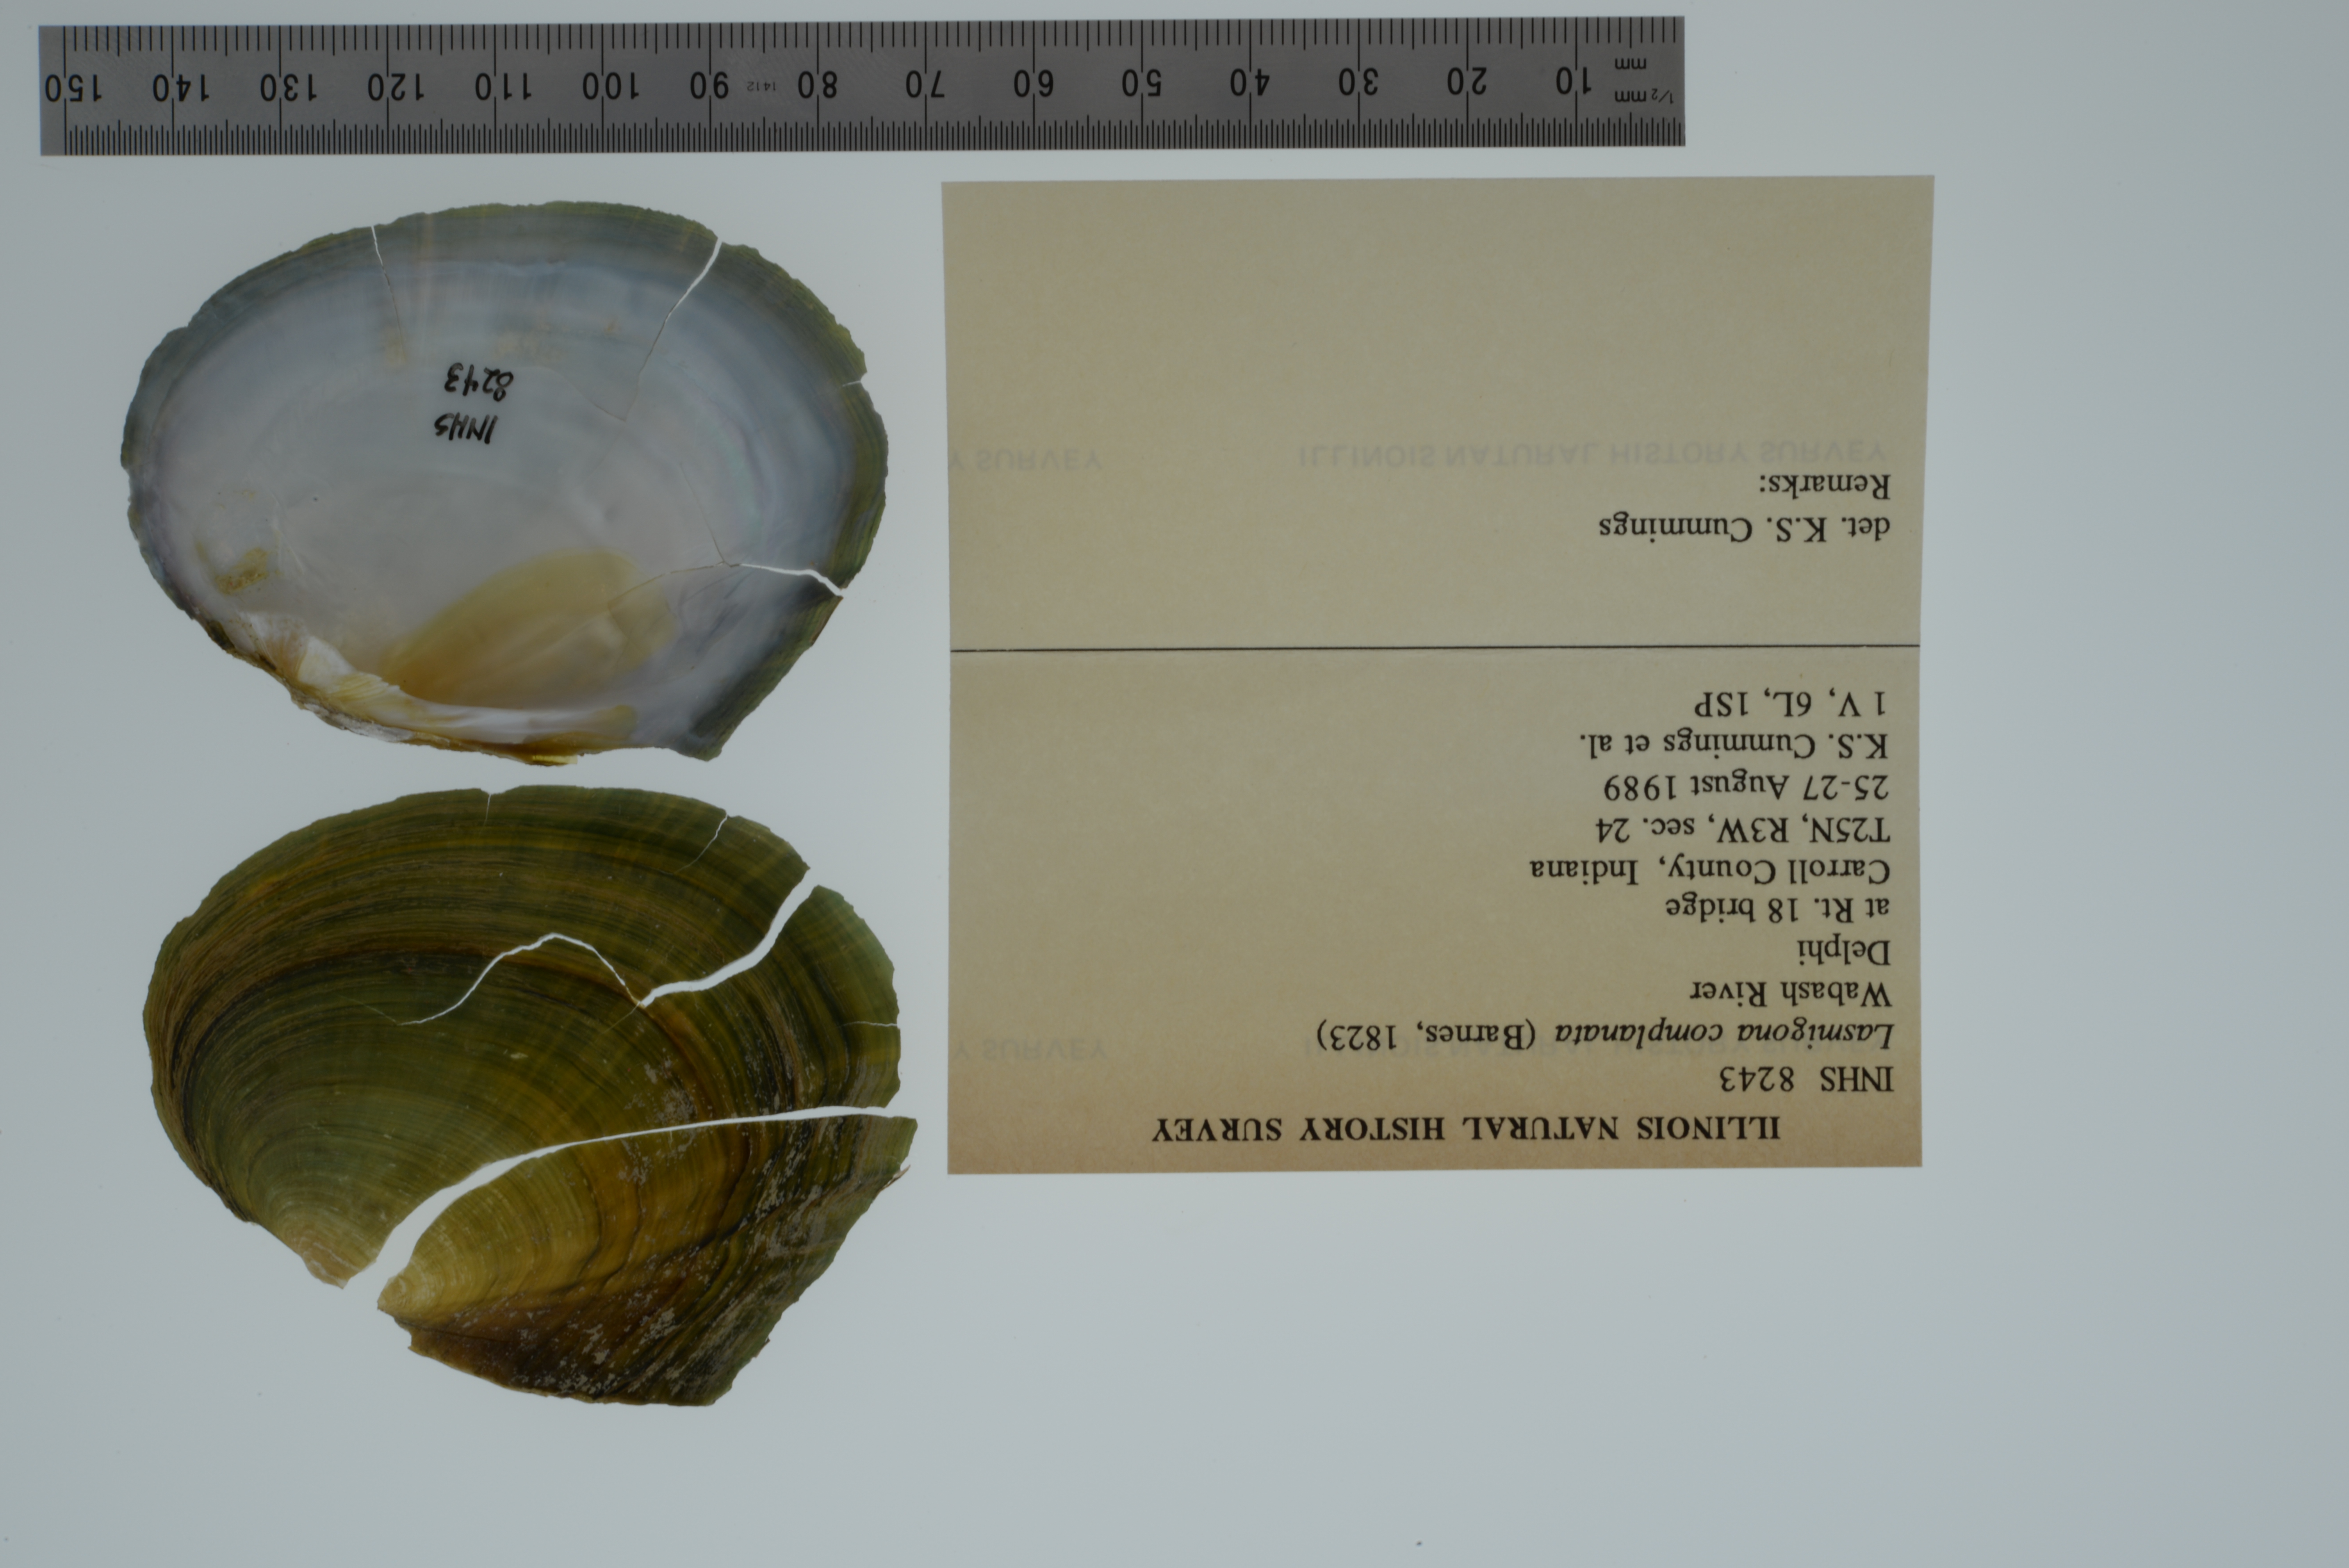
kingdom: Animalia
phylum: Mollusca
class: Bivalvia
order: Unionida
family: Unionidae
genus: Lasmigona
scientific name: Lasmigona complanata
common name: White heelsplitter
